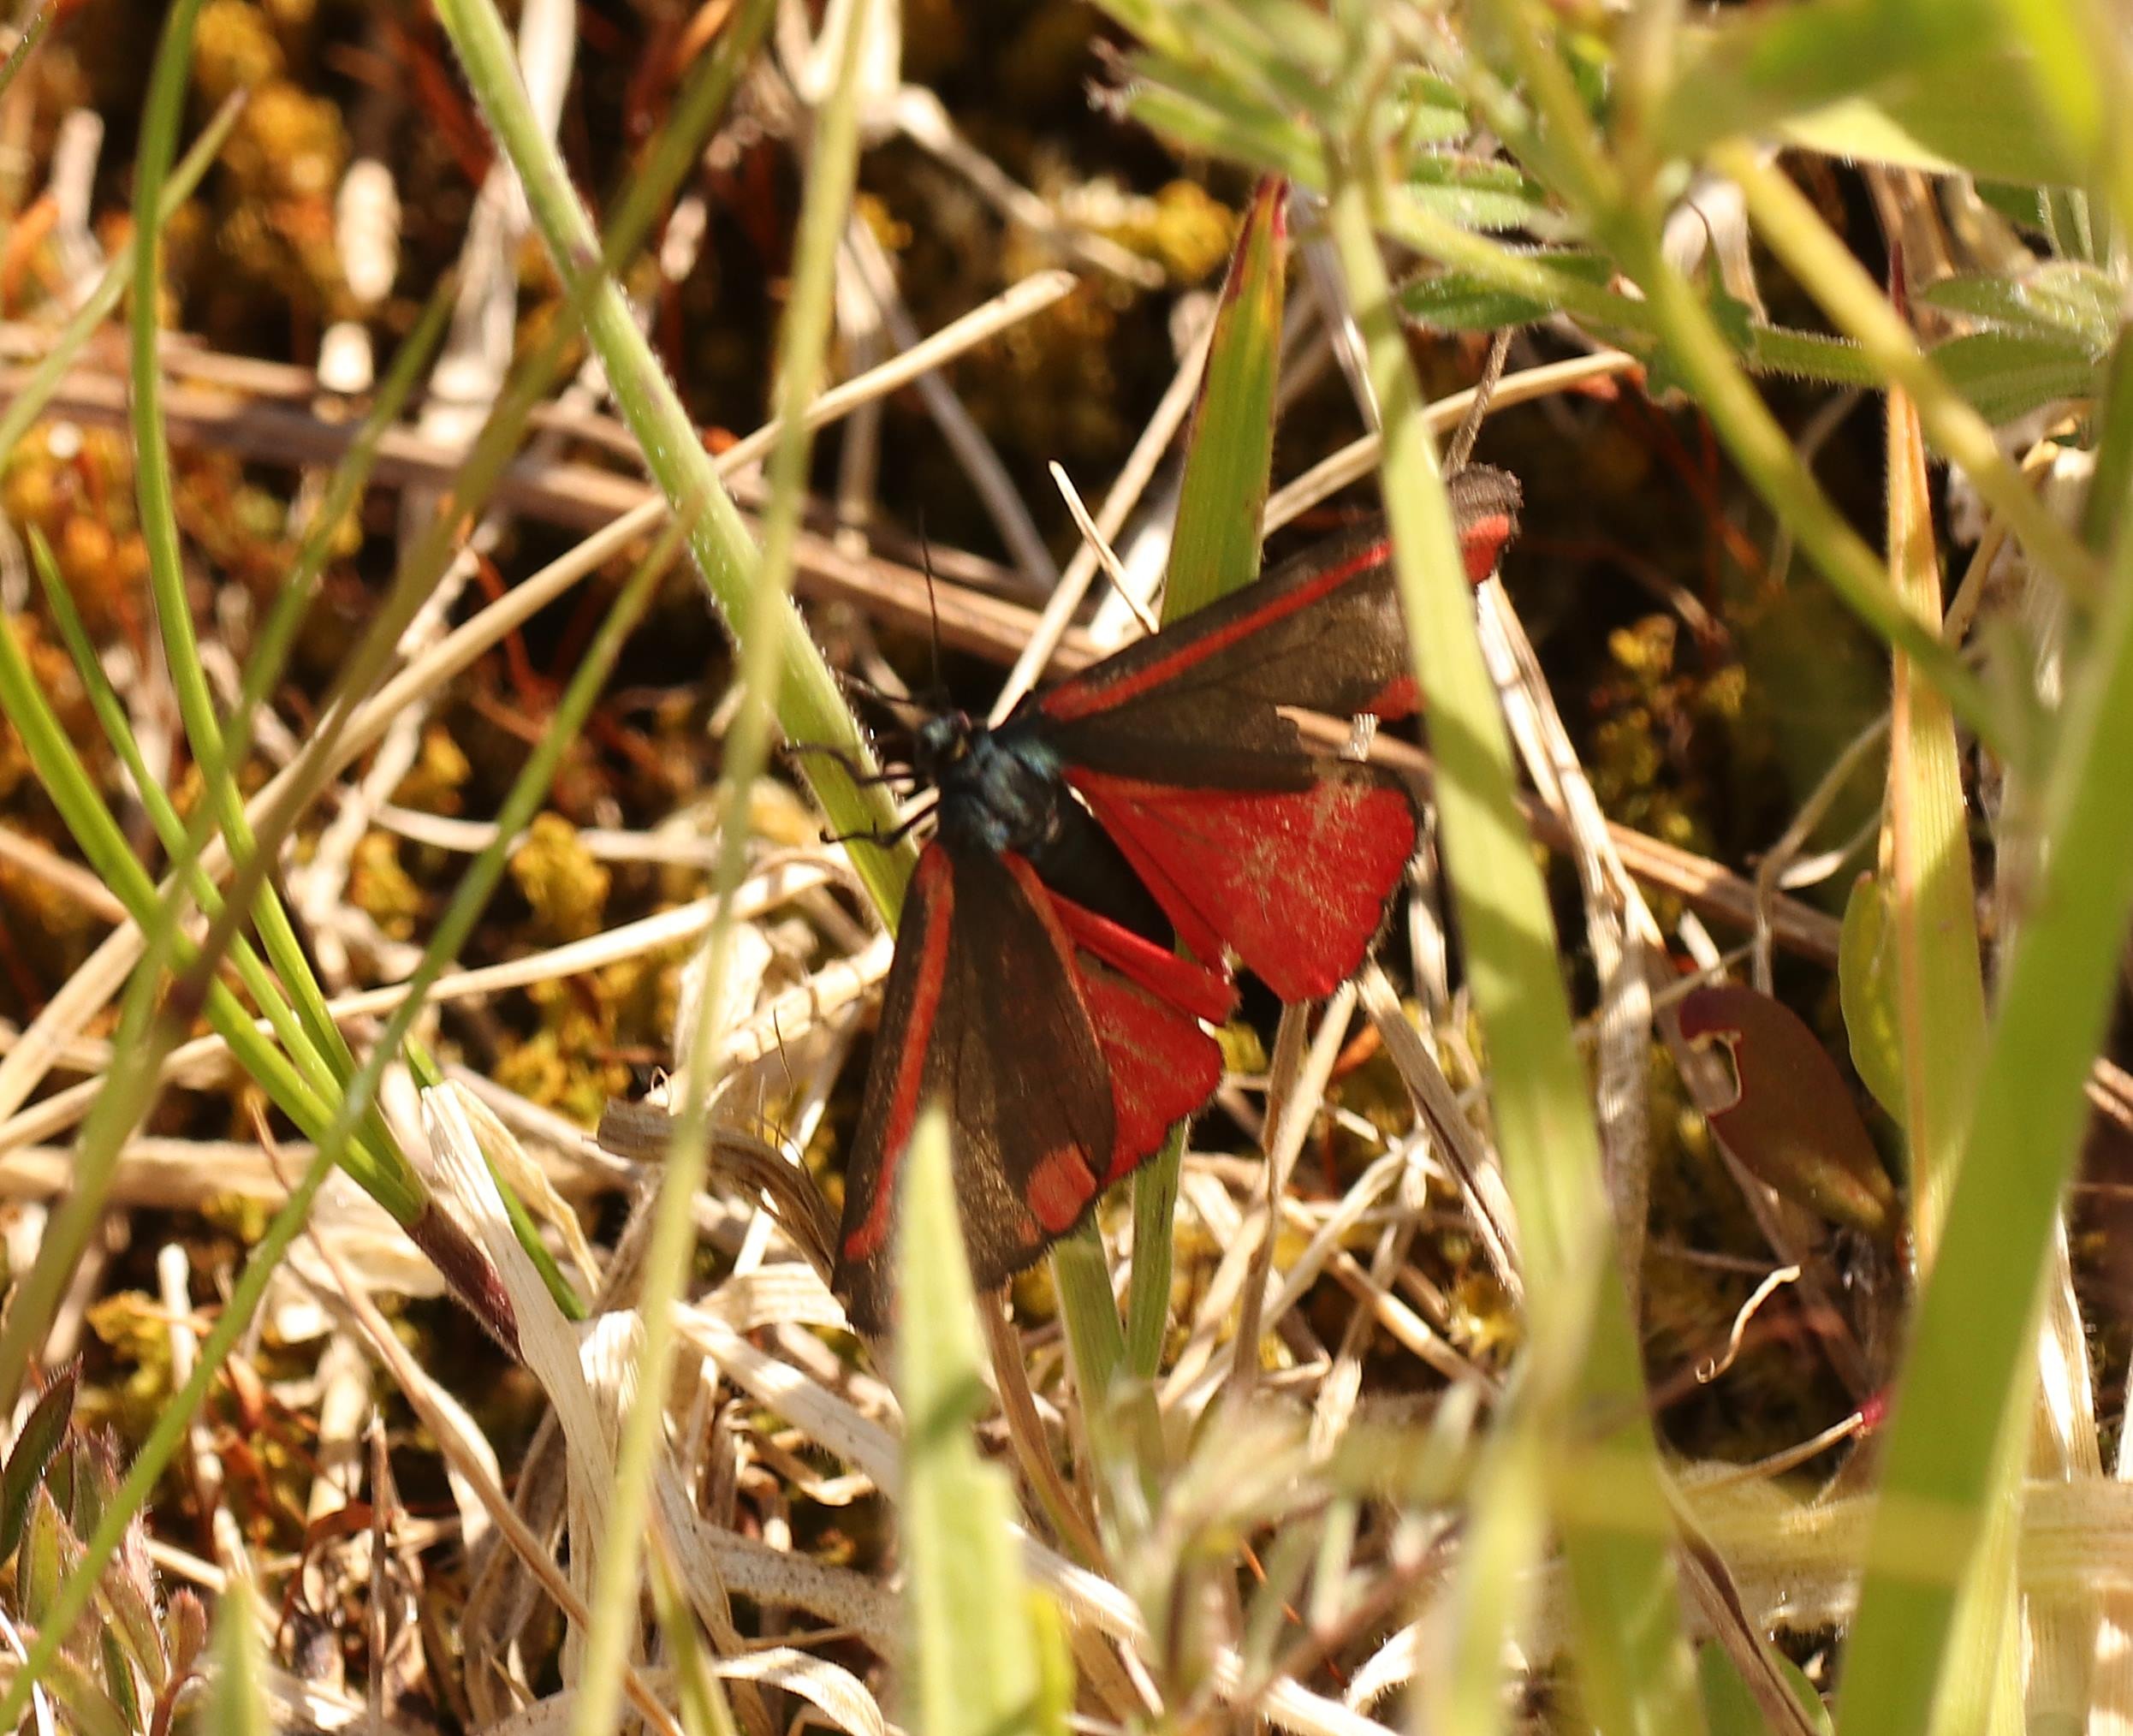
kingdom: Animalia
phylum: Arthropoda
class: Insecta
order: Lepidoptera
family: Erebidae
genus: Tyria
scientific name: Tyria jacobaeae
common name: Blodplet
